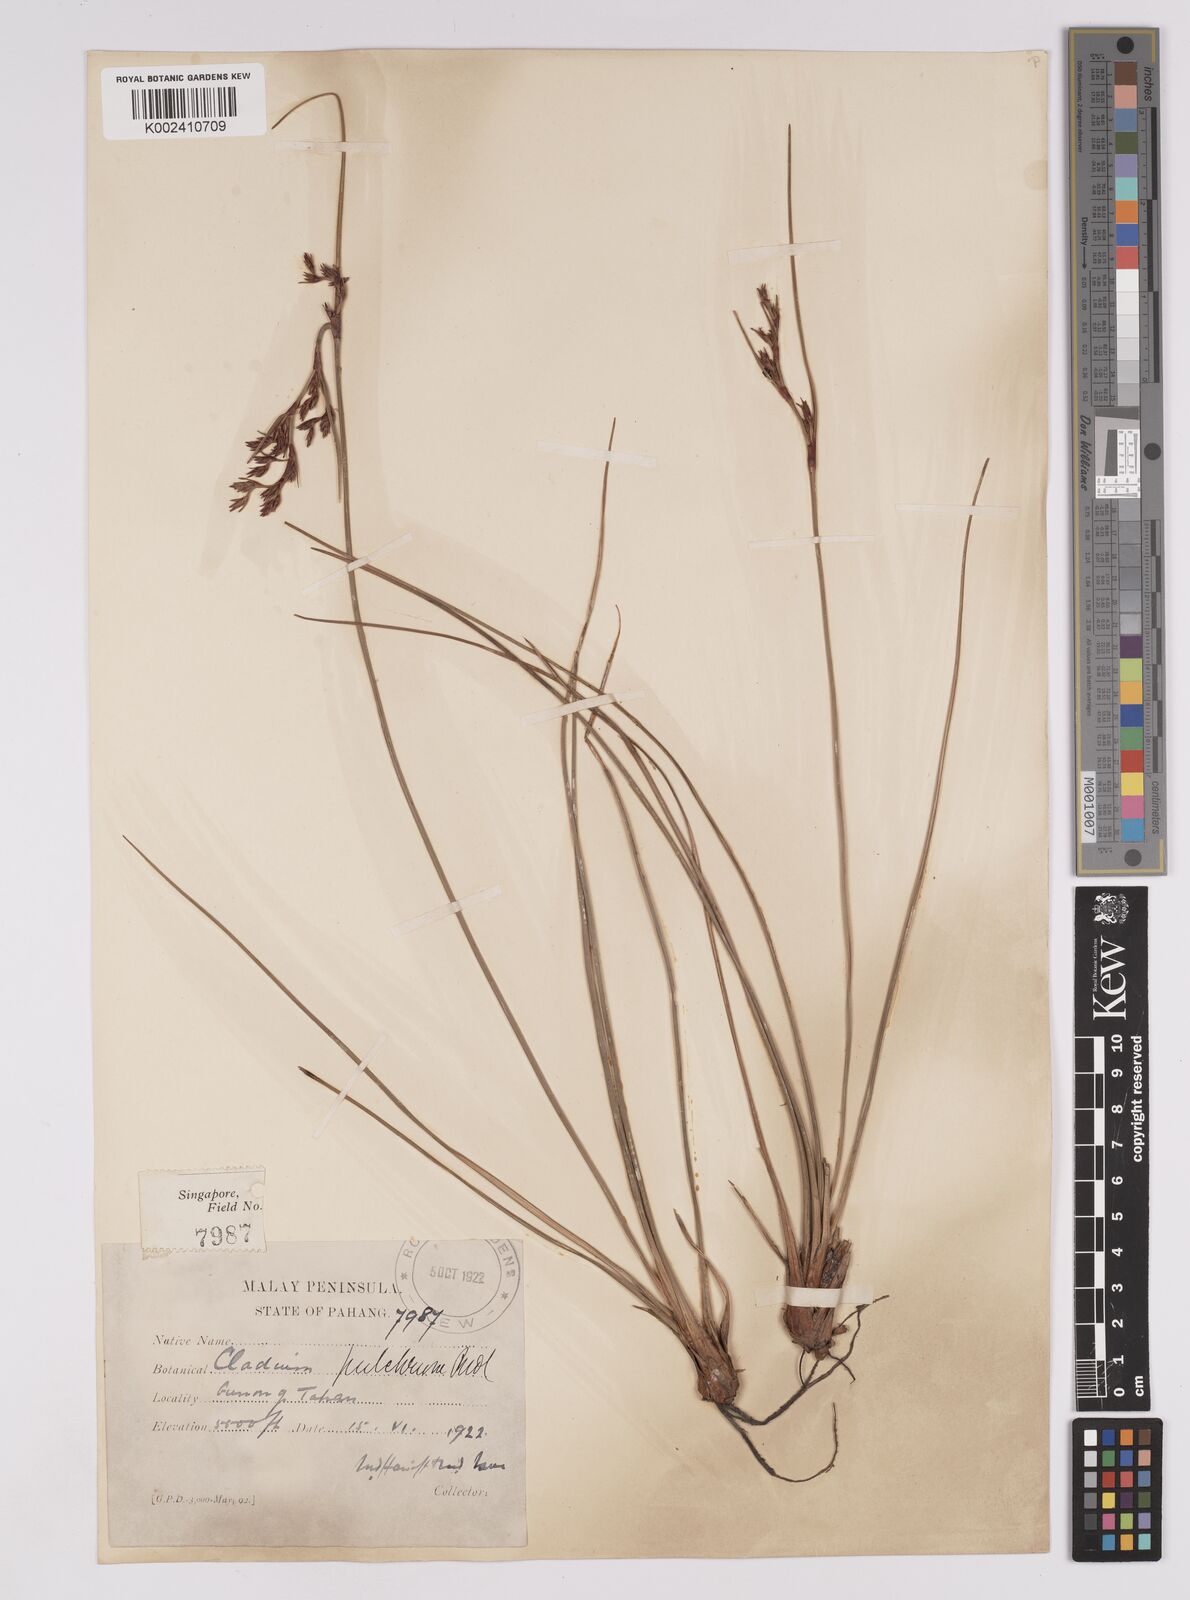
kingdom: Plantae
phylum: Tracheophyta
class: Liliopsida
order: Poales
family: Cyperaceae
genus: Anthelepis
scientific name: Anthelepis undulata
